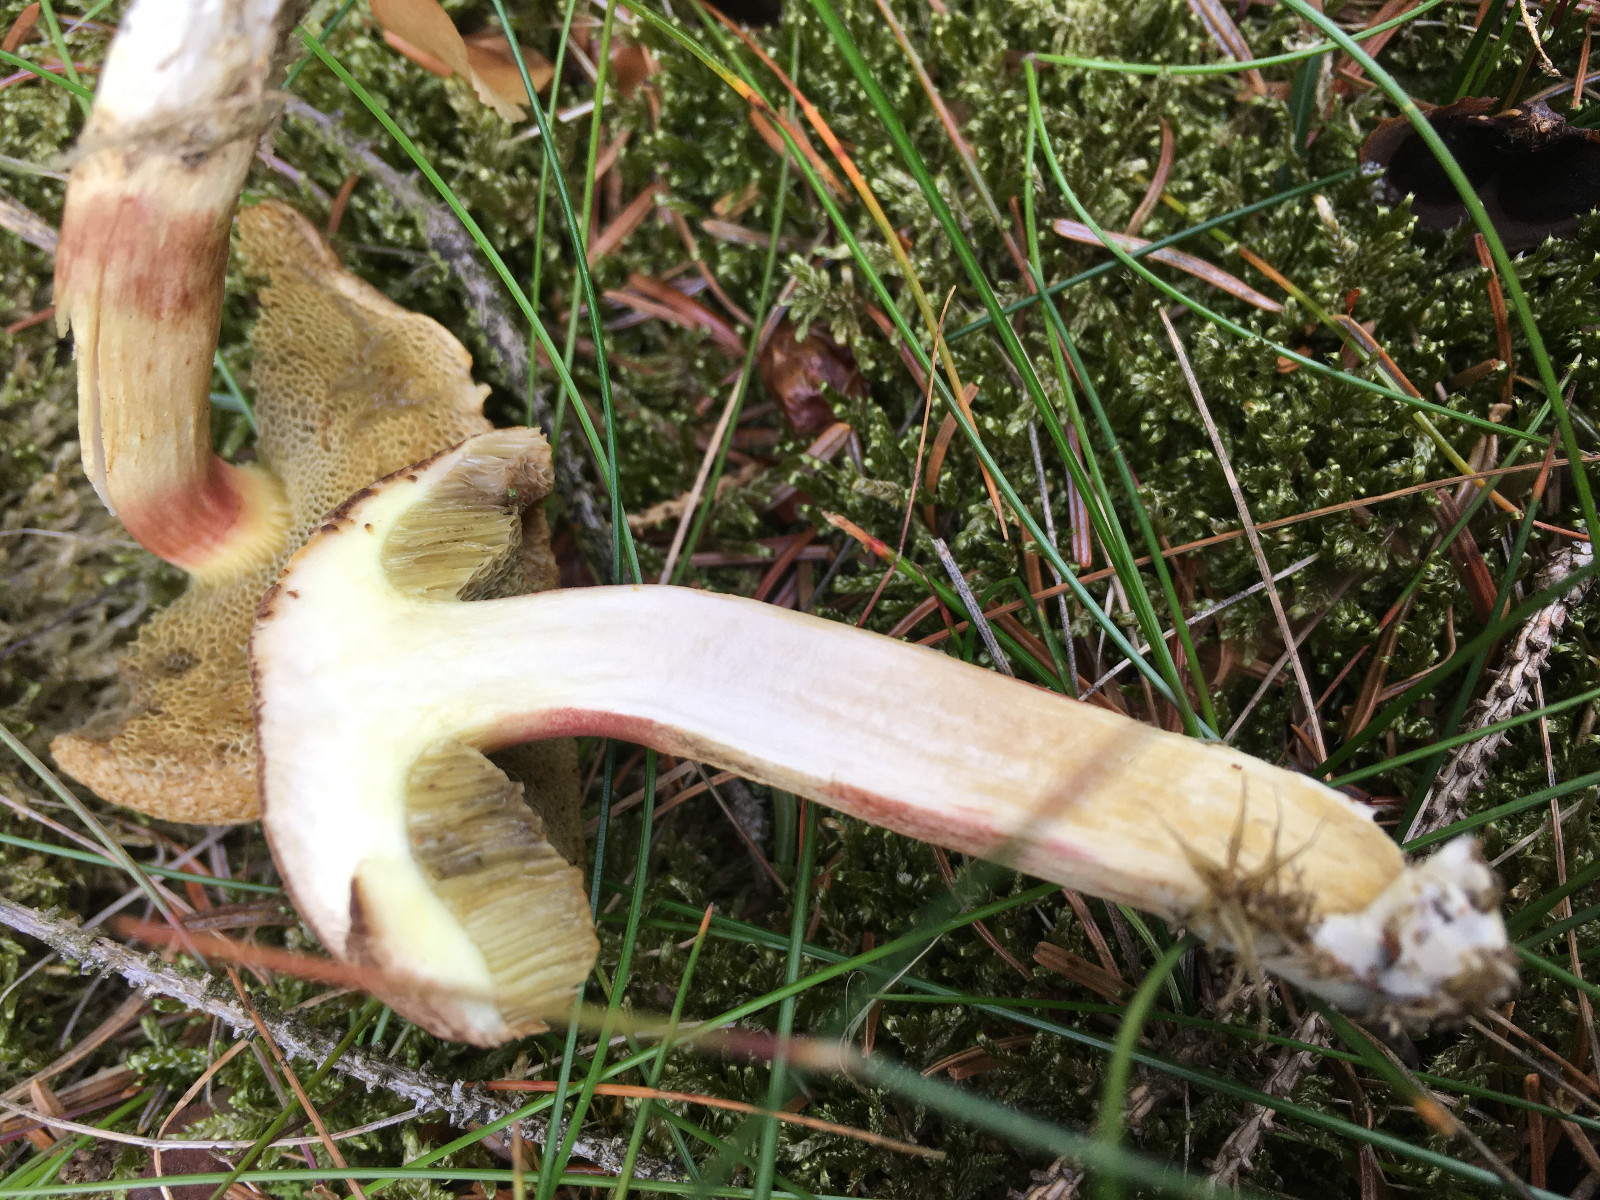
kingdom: Fungi
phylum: Basidiomycota
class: Agaricomycetes
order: Boletales
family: Boletaceae
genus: Xerocomellus
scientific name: Xerocomellus chrysenteron
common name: rødsprukken rørhat
